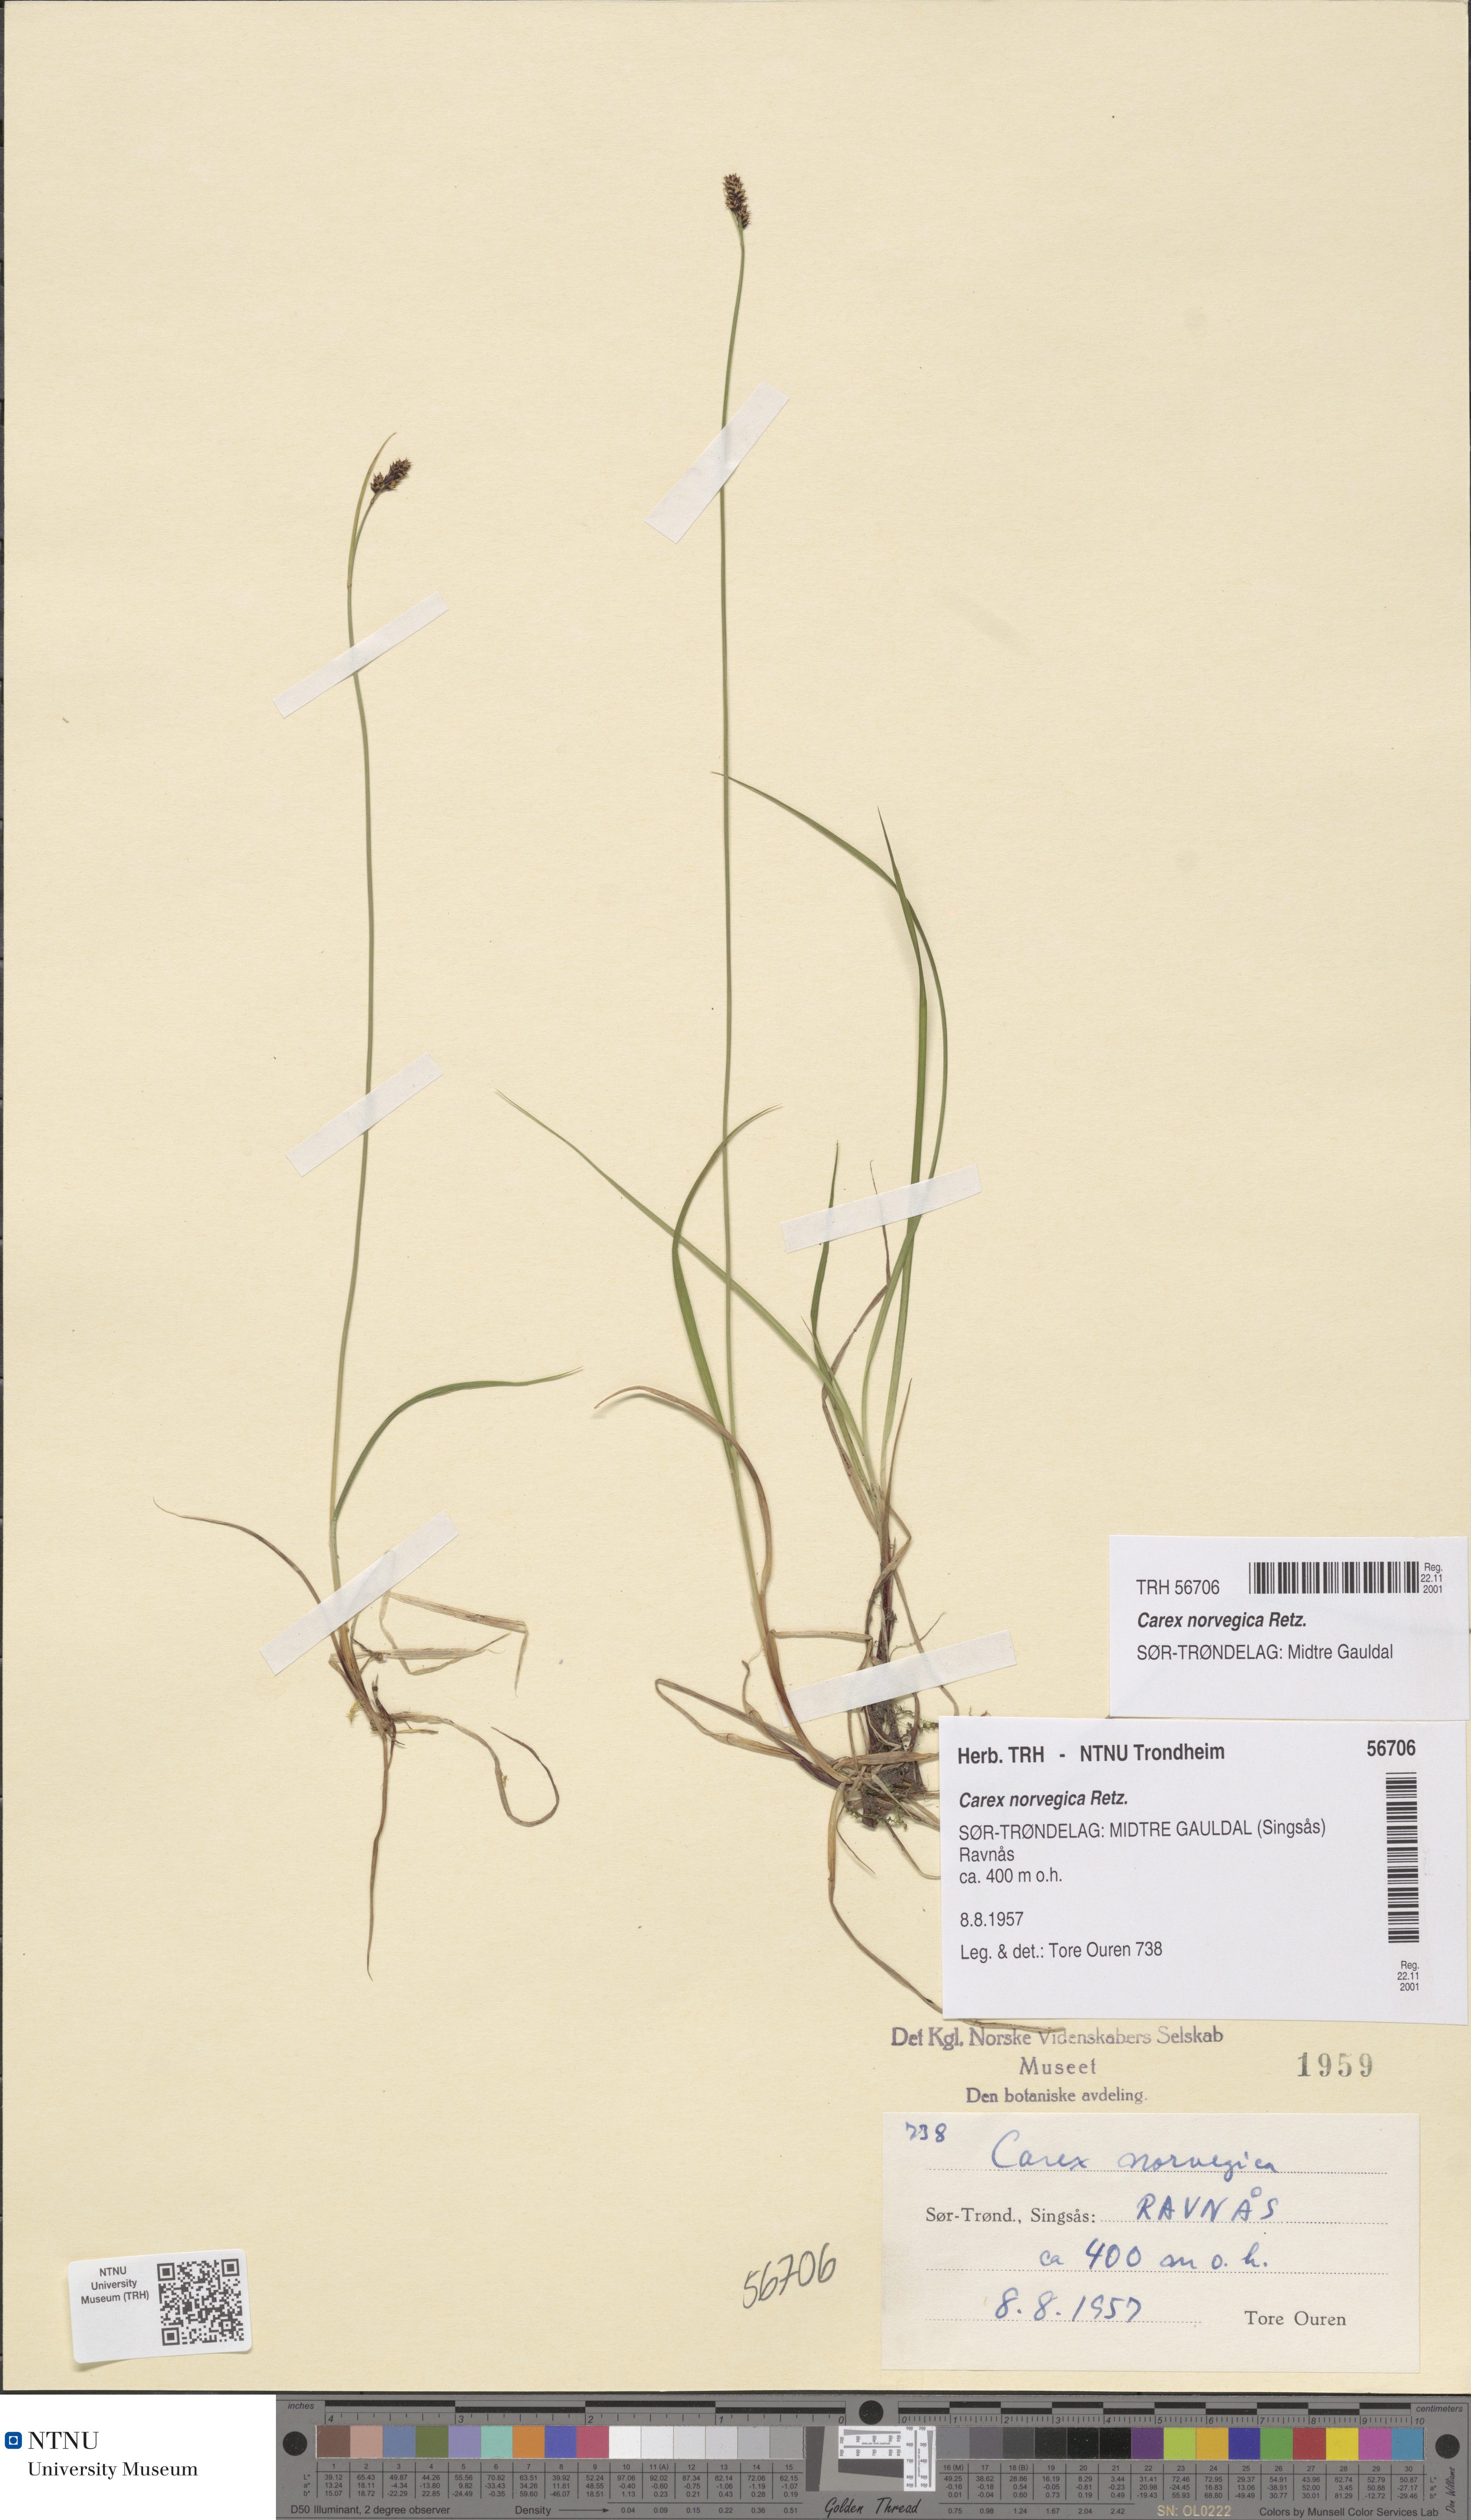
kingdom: Plantae
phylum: Tracheophyta
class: Liliopsida
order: Poales
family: Cyperaceae
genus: Carex
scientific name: Carex norvegica
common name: Close-headed alpine-sedge
